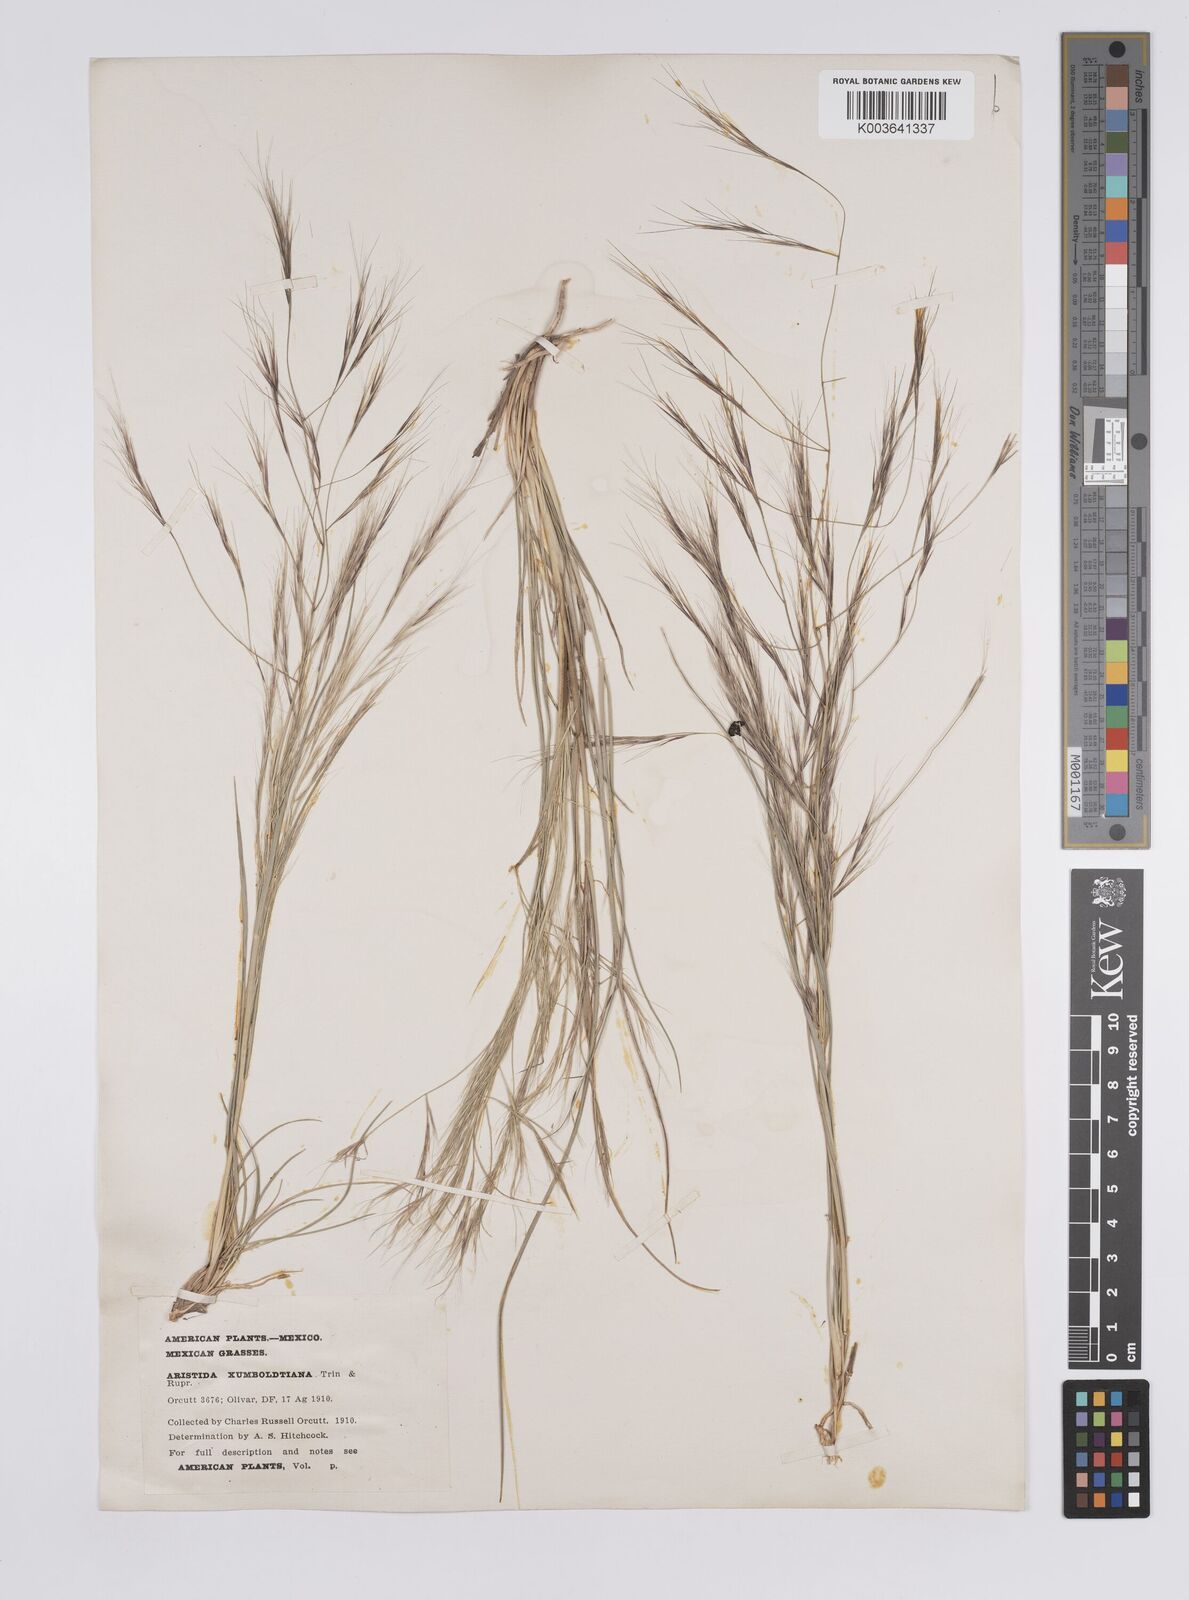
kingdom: Plantae
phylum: Tracheophyta
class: Liliopsida
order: Poales
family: Poaceae
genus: Aristida
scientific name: Aristida divaricata
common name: Poverty grass
